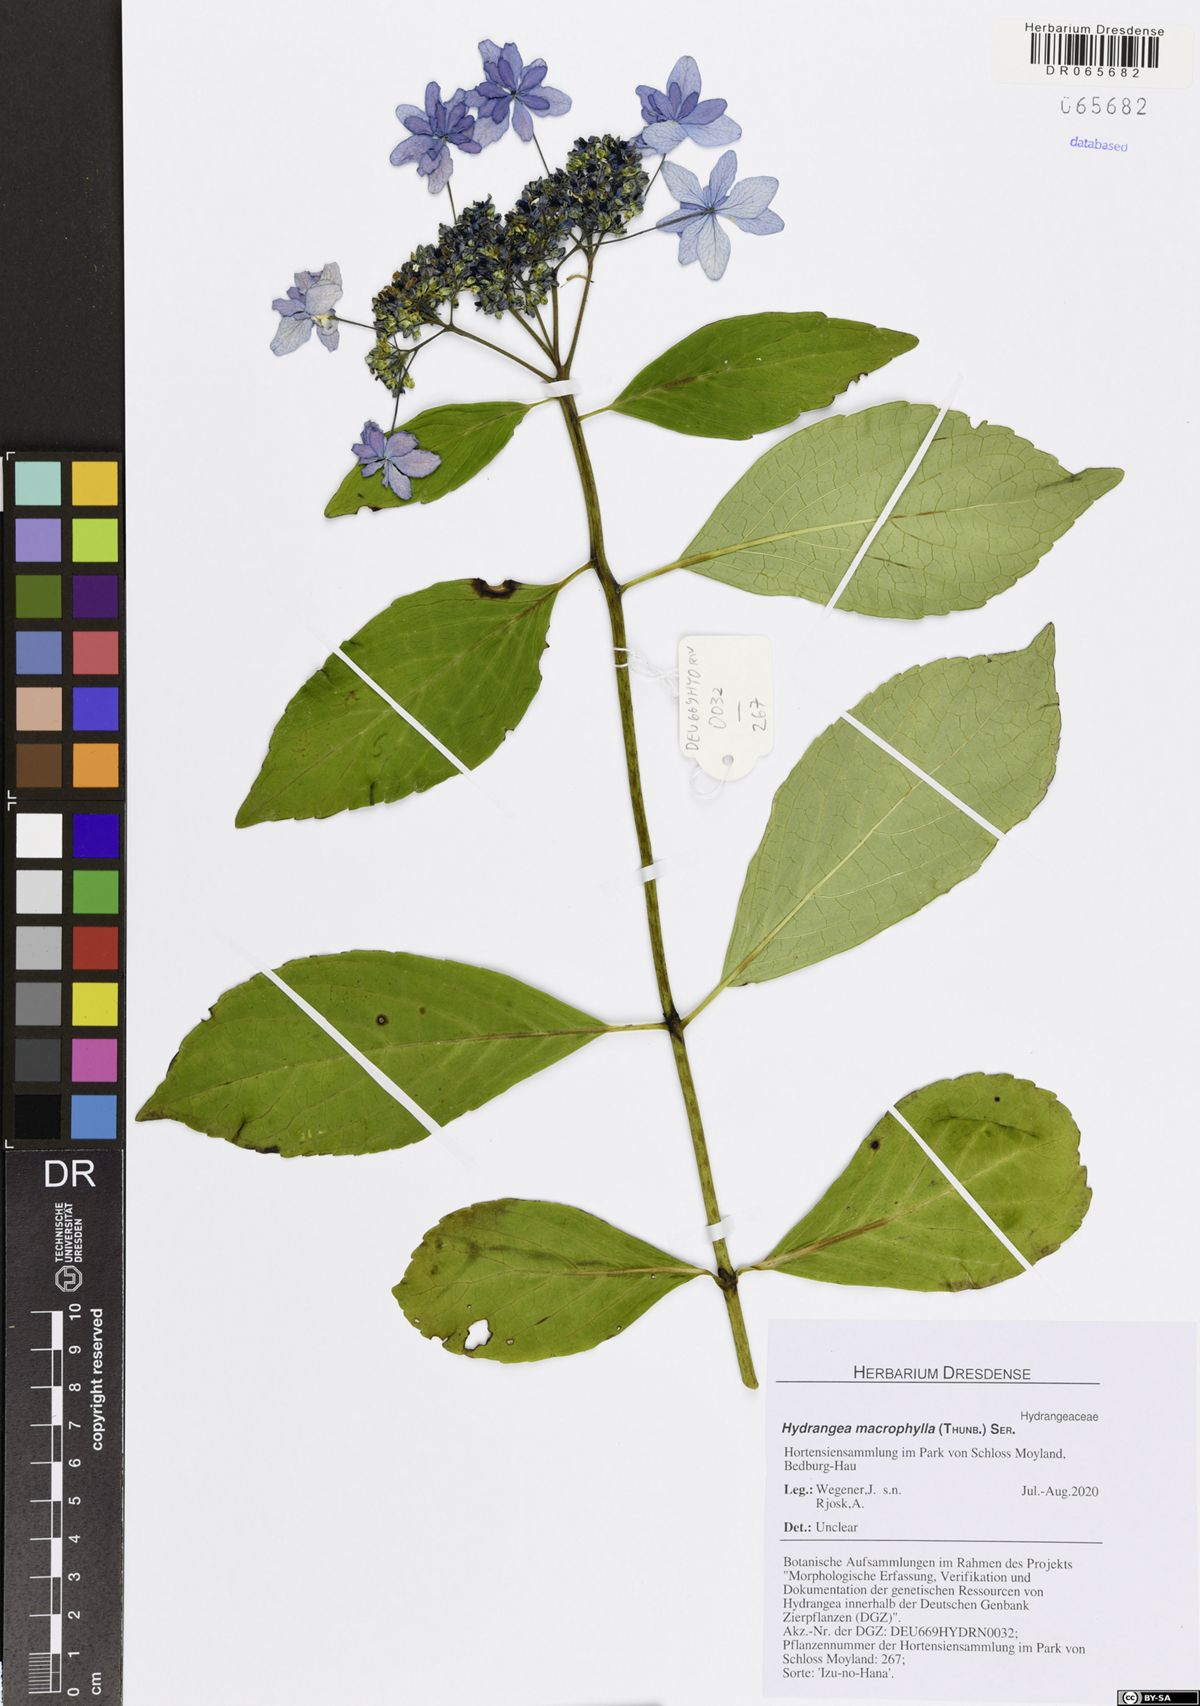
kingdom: Plantae
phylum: Tracheophyta
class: Magnoliopsida
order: Cornales
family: Hydrangeaceae
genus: Hydrangea
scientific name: Hydrangea macrophylla
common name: Hydrangea
